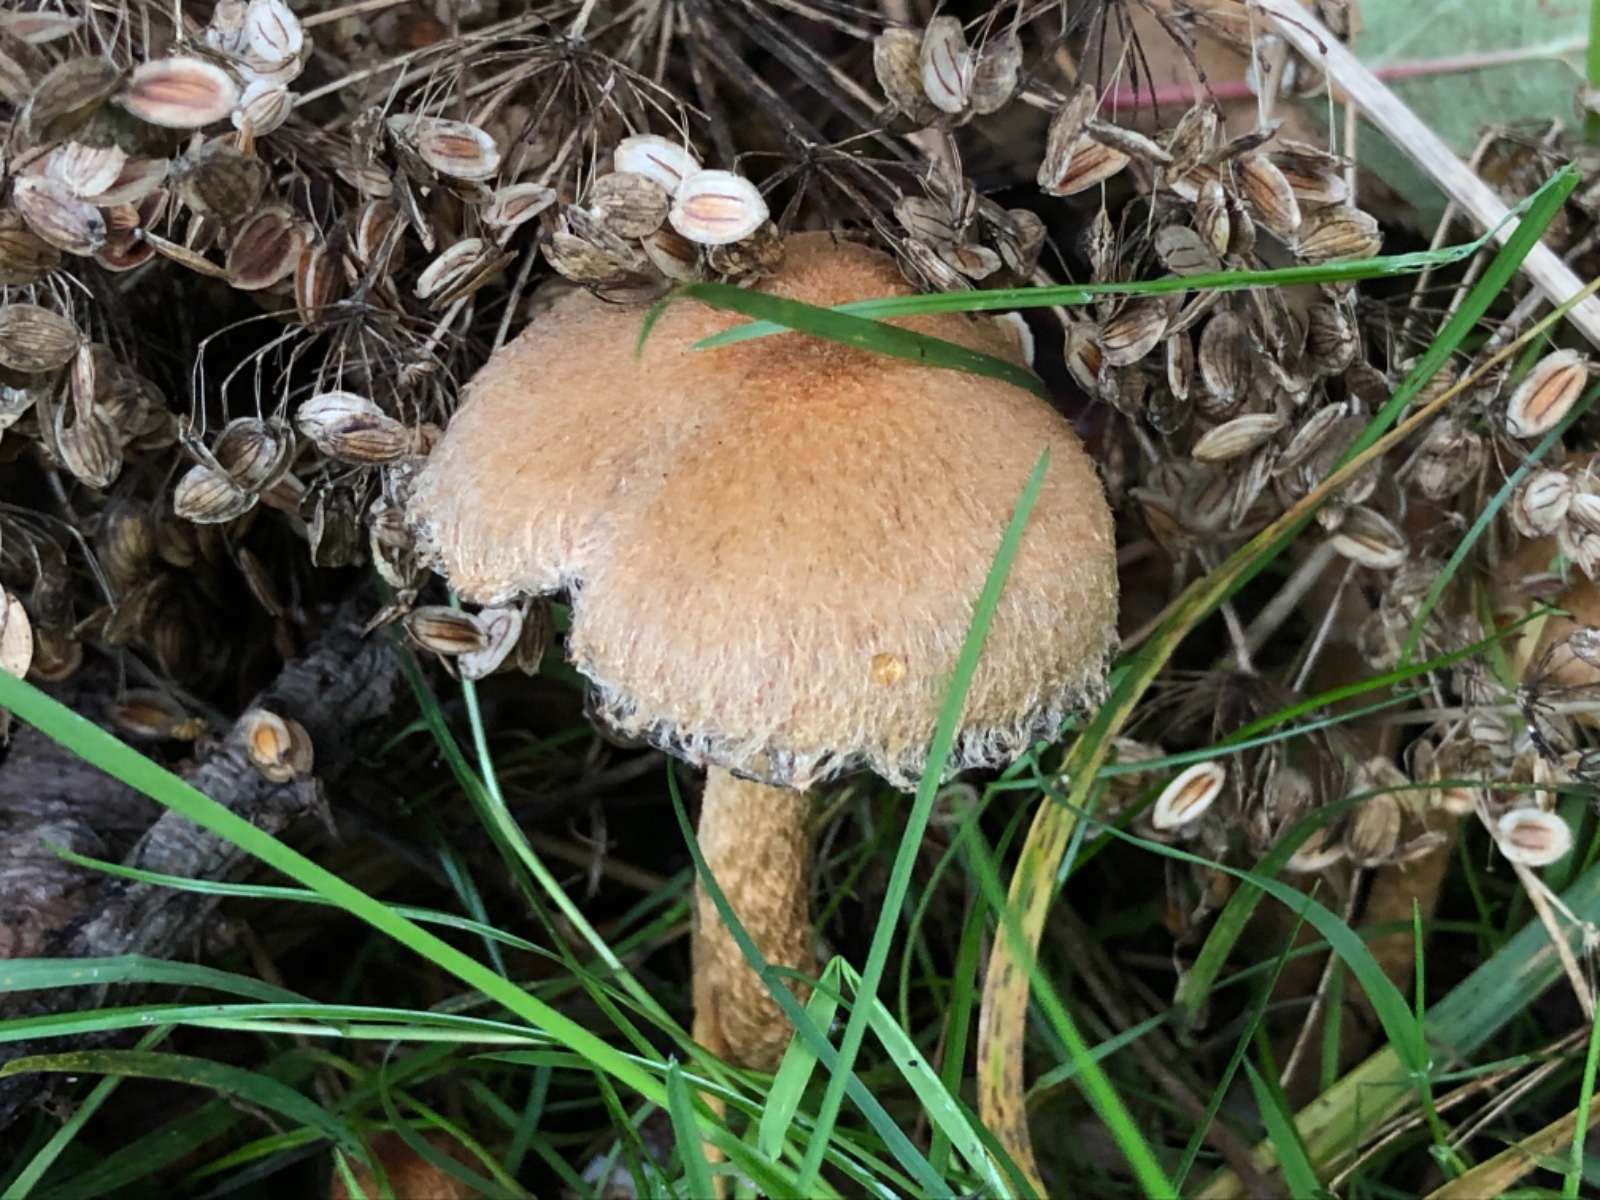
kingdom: Fungi
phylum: Basidiomycota
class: Agaricomycetes
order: Agaricales
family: Psathyrellaceae
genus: Lacrymaria
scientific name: Lacrymaria lacrymabunda
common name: grædende mørkhat
